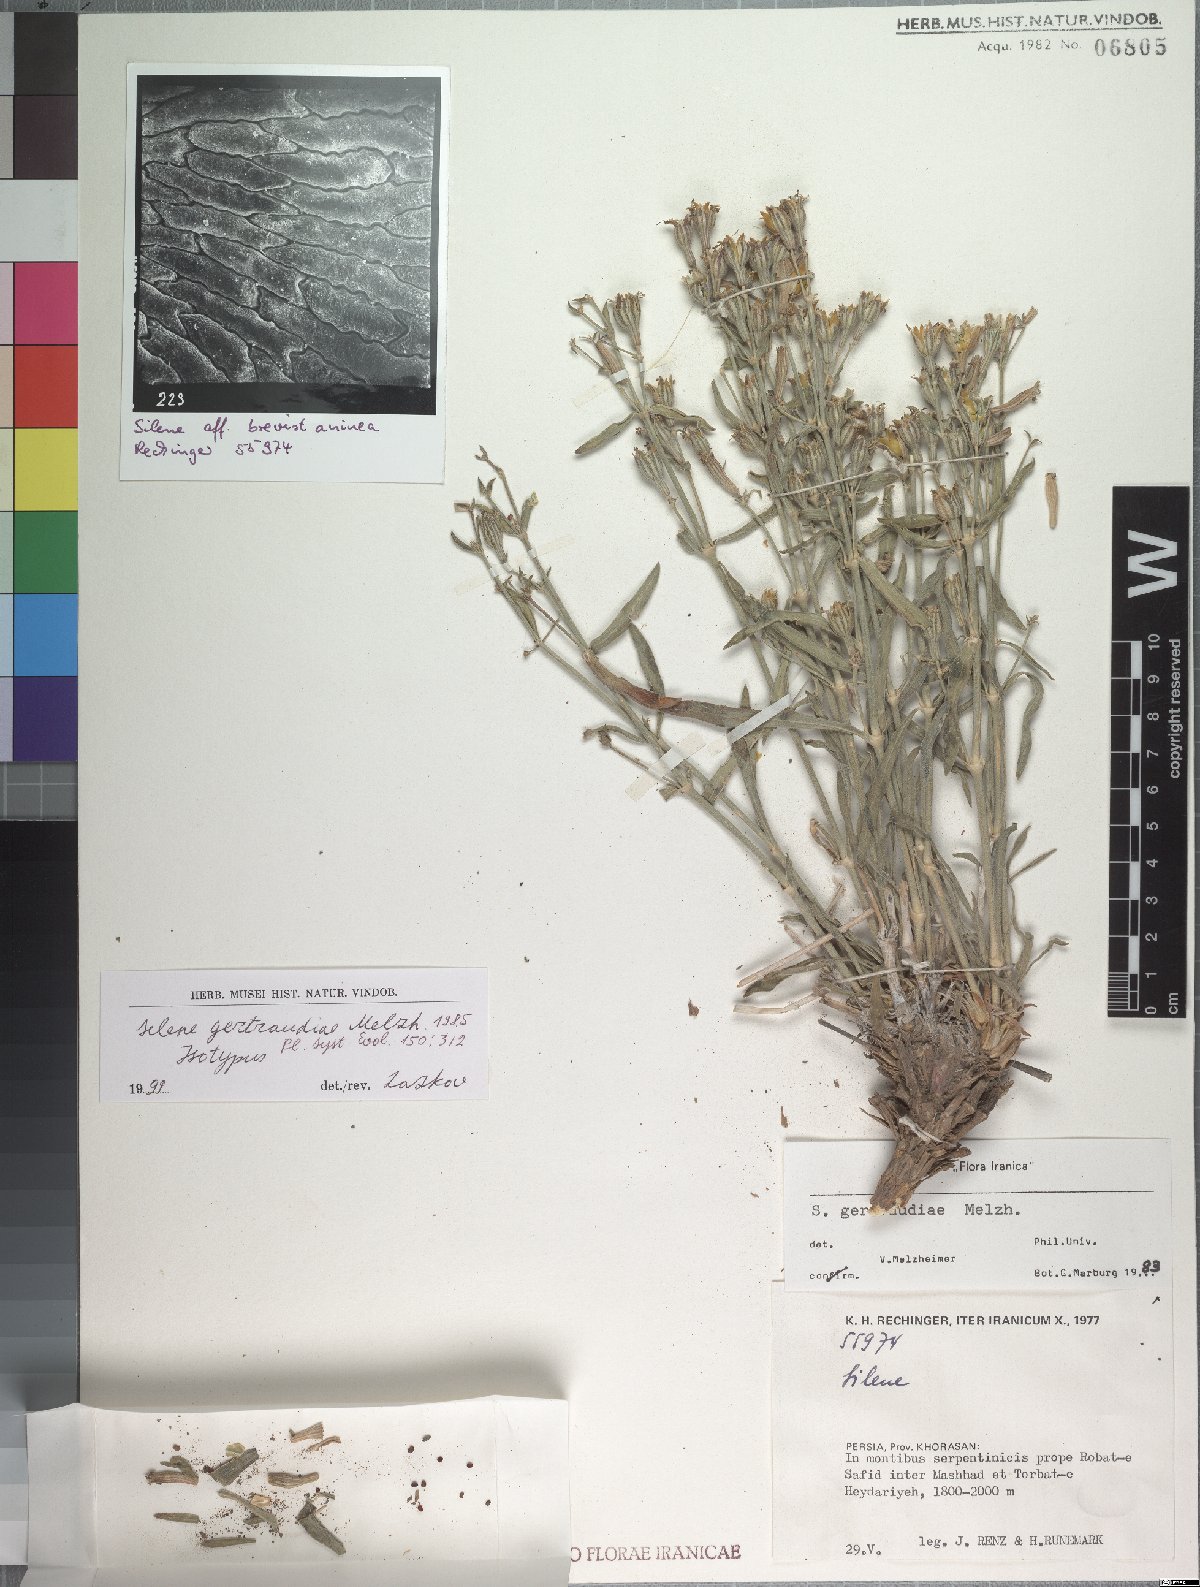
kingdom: Plantae
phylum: Tracheophyta
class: Magnoliopsida
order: Caryophyllales
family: Caryophyllaceae
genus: Silene
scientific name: Silene gertraudiae
